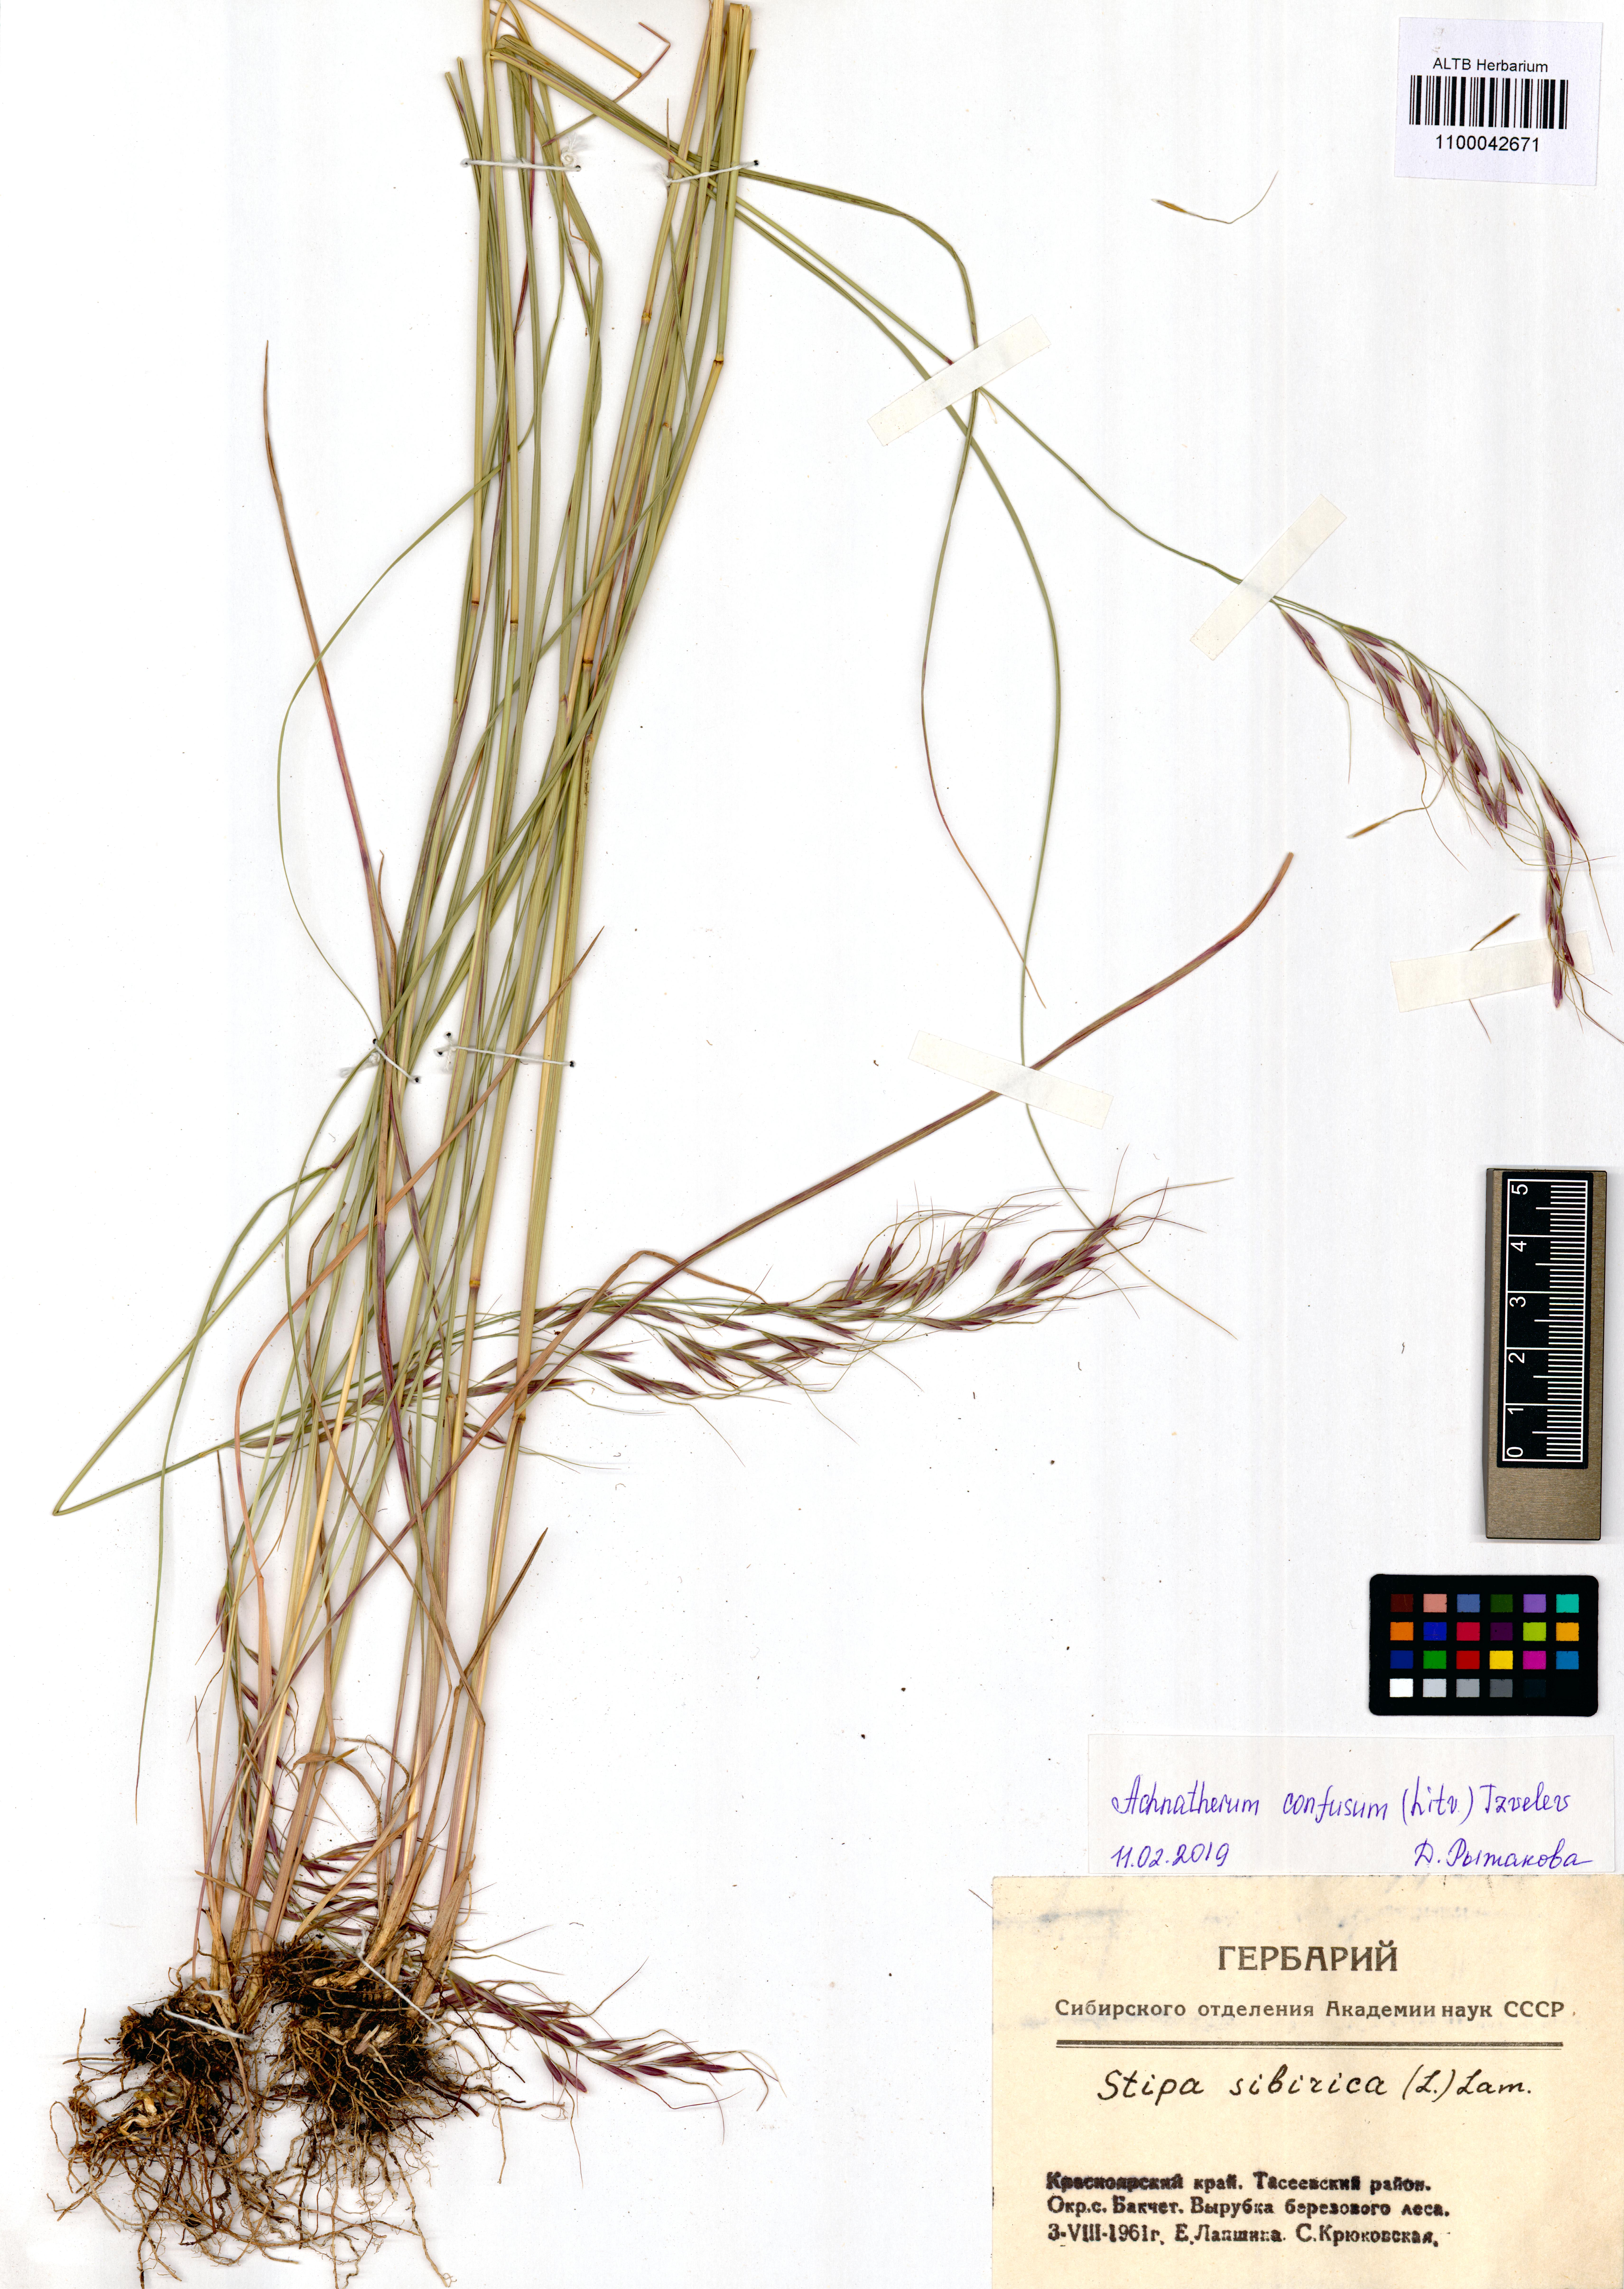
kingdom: Plantae
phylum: Tracheophyta
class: Liliopsida
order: Poales
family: Poaceae
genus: Achnatherum
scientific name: Achnatherum confusum
